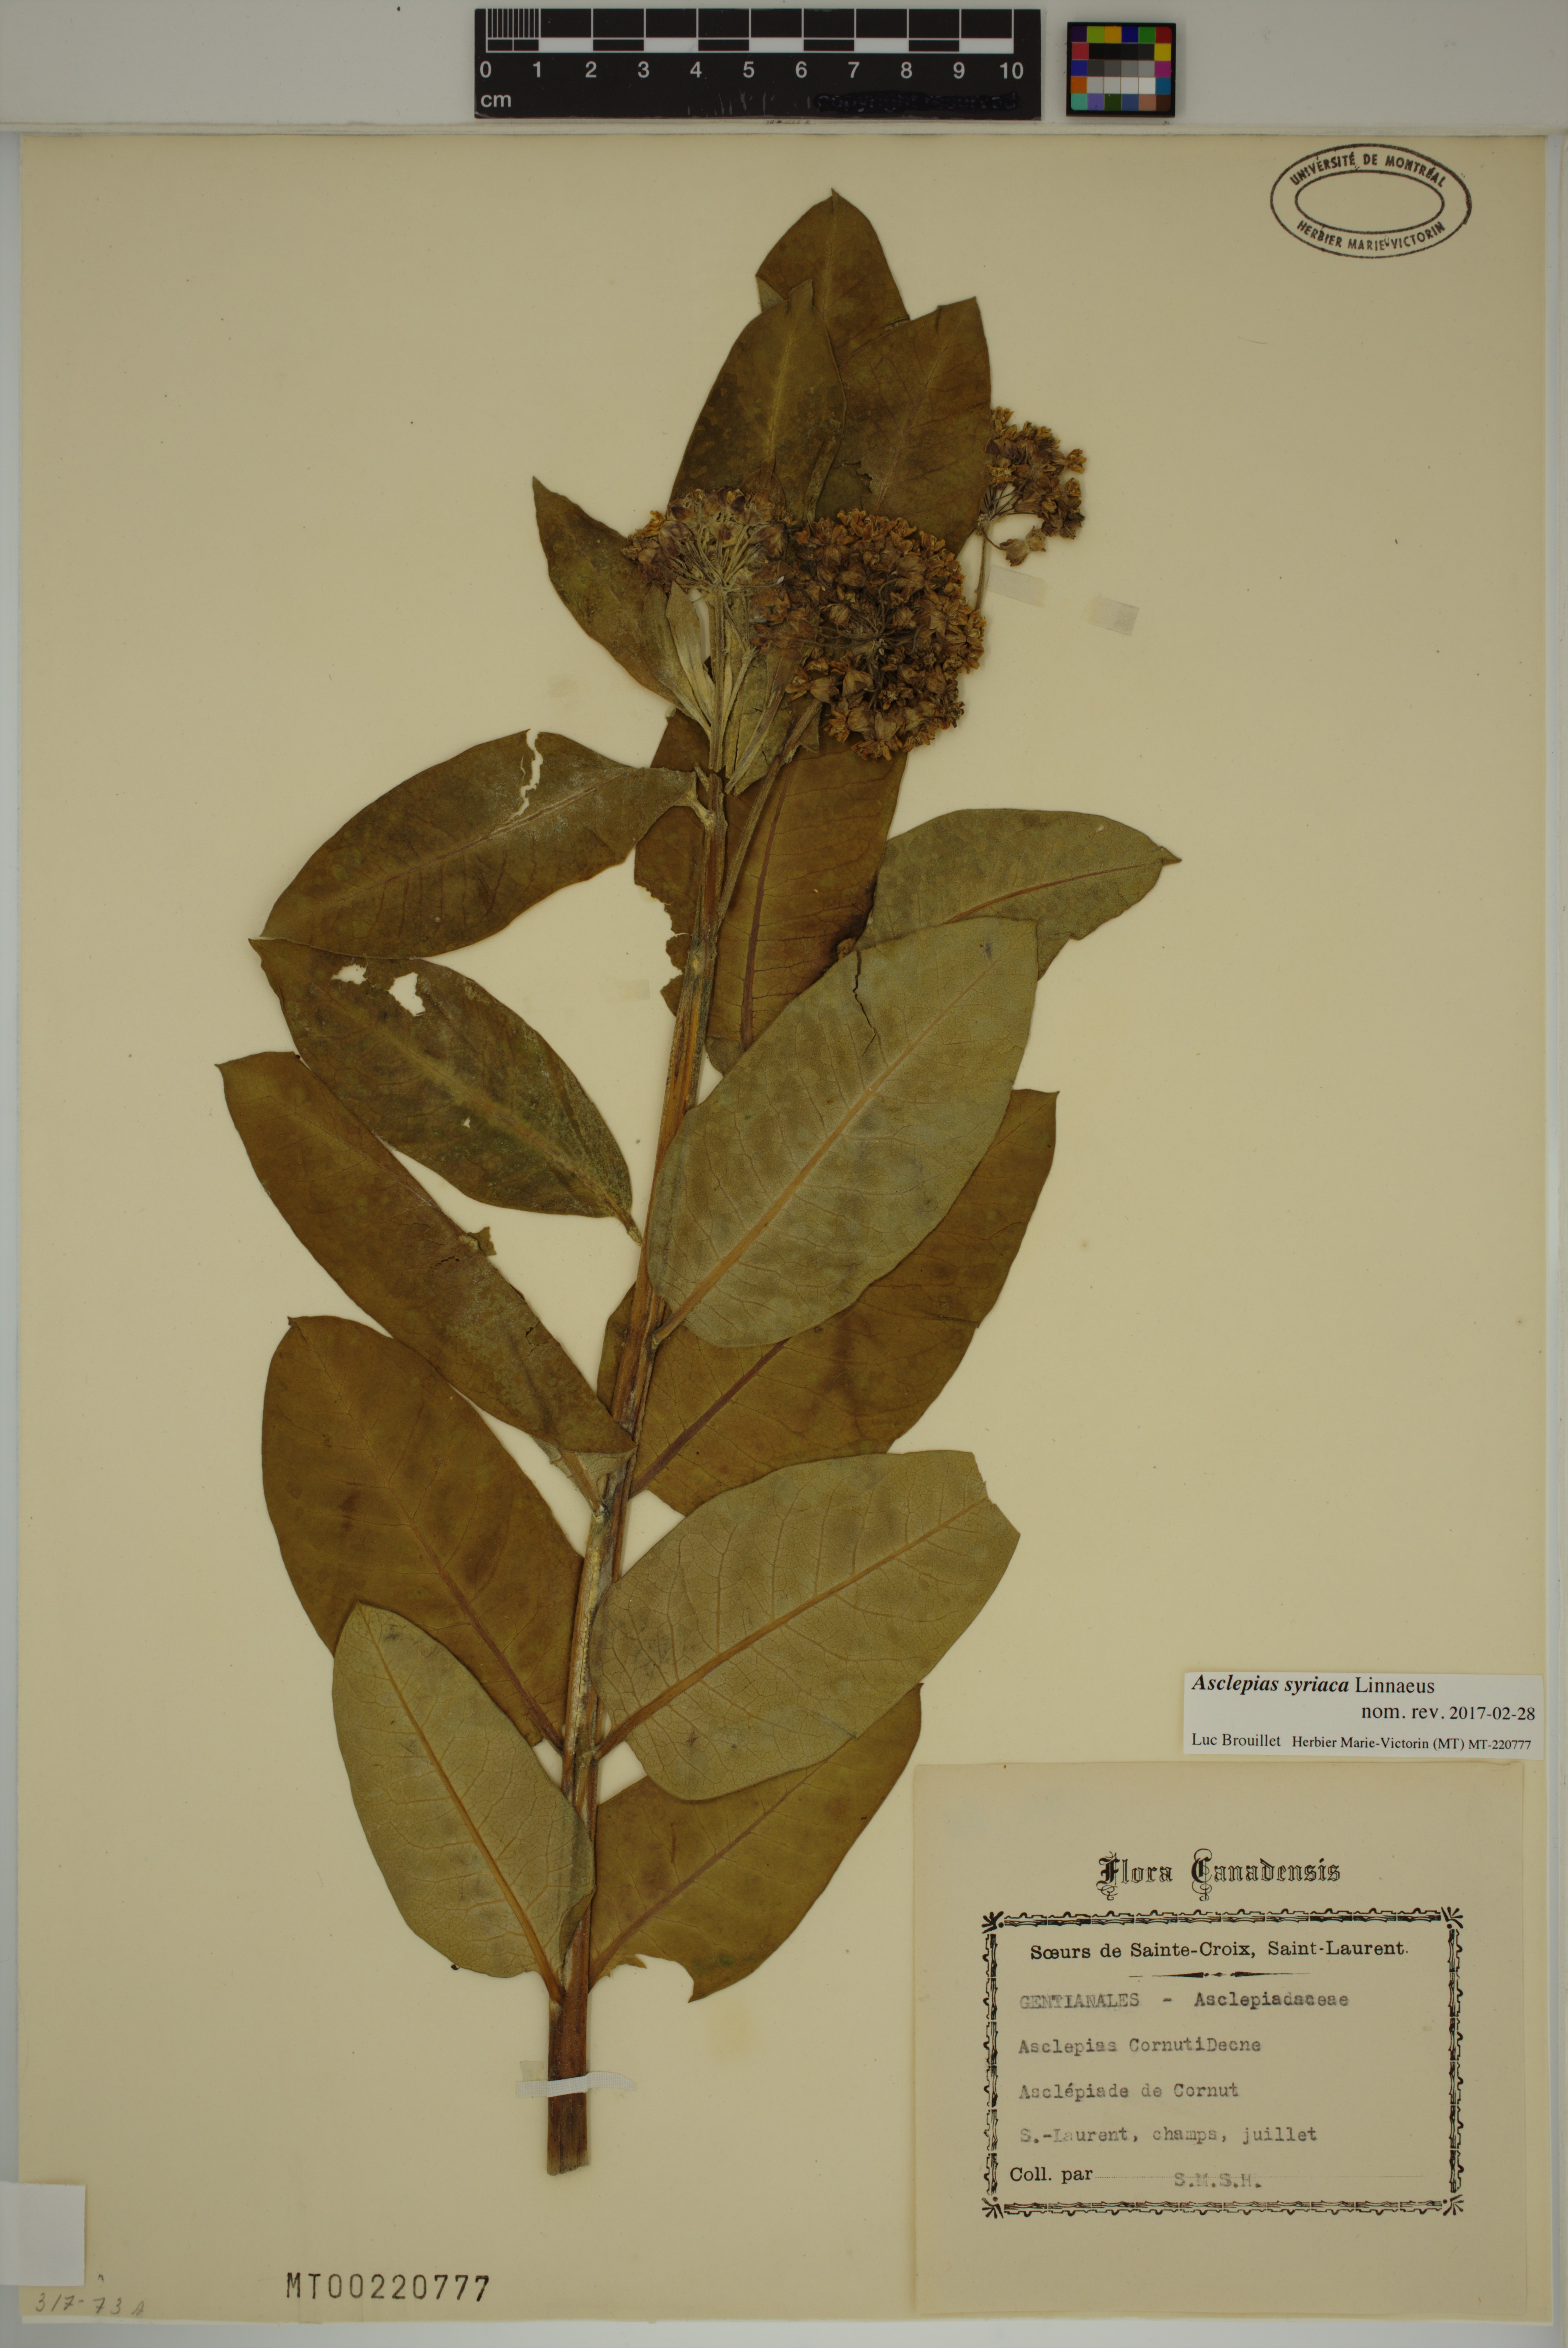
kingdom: Plantae
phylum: Tracheophyta
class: Magnoliopsida
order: Gentianales
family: Apocynaceae
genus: Asclepias
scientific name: Asclepias syriaca
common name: Common milkweed
